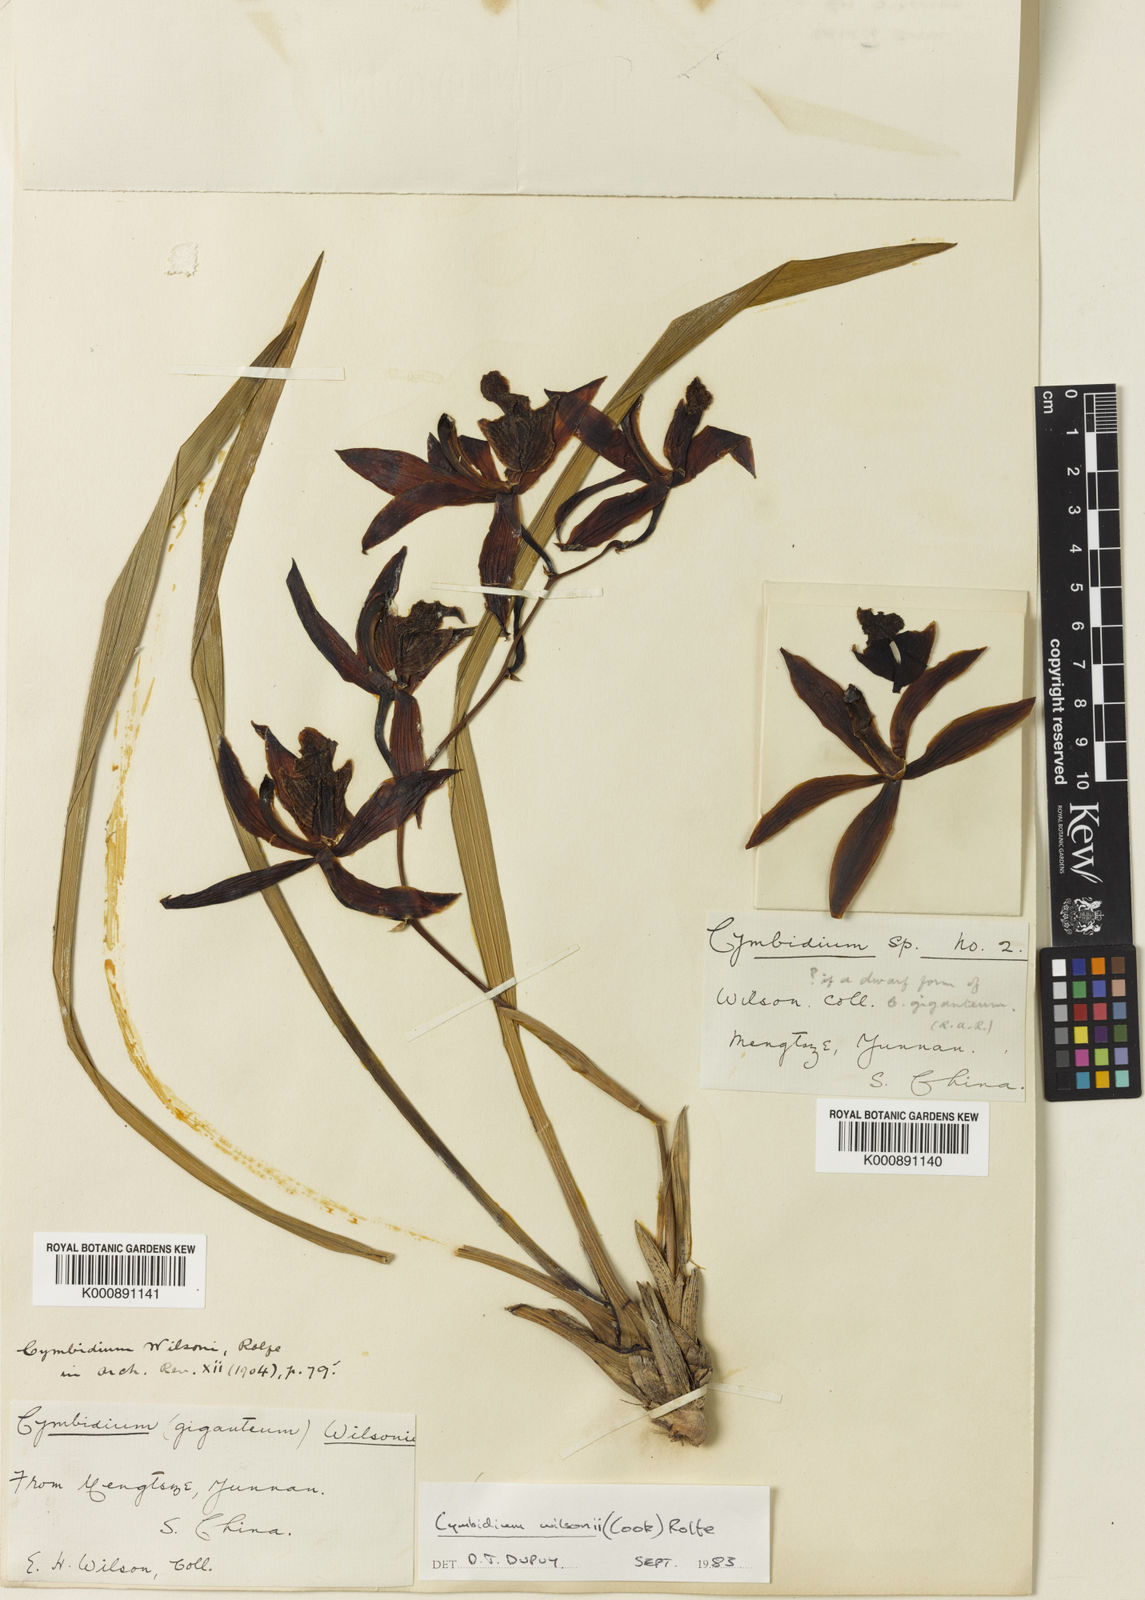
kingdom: Plantae
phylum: Tracheophyta
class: Liliopsida
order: Asparagales
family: Orchidaceae
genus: Cymbidium
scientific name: Cymbidium wilsonii
